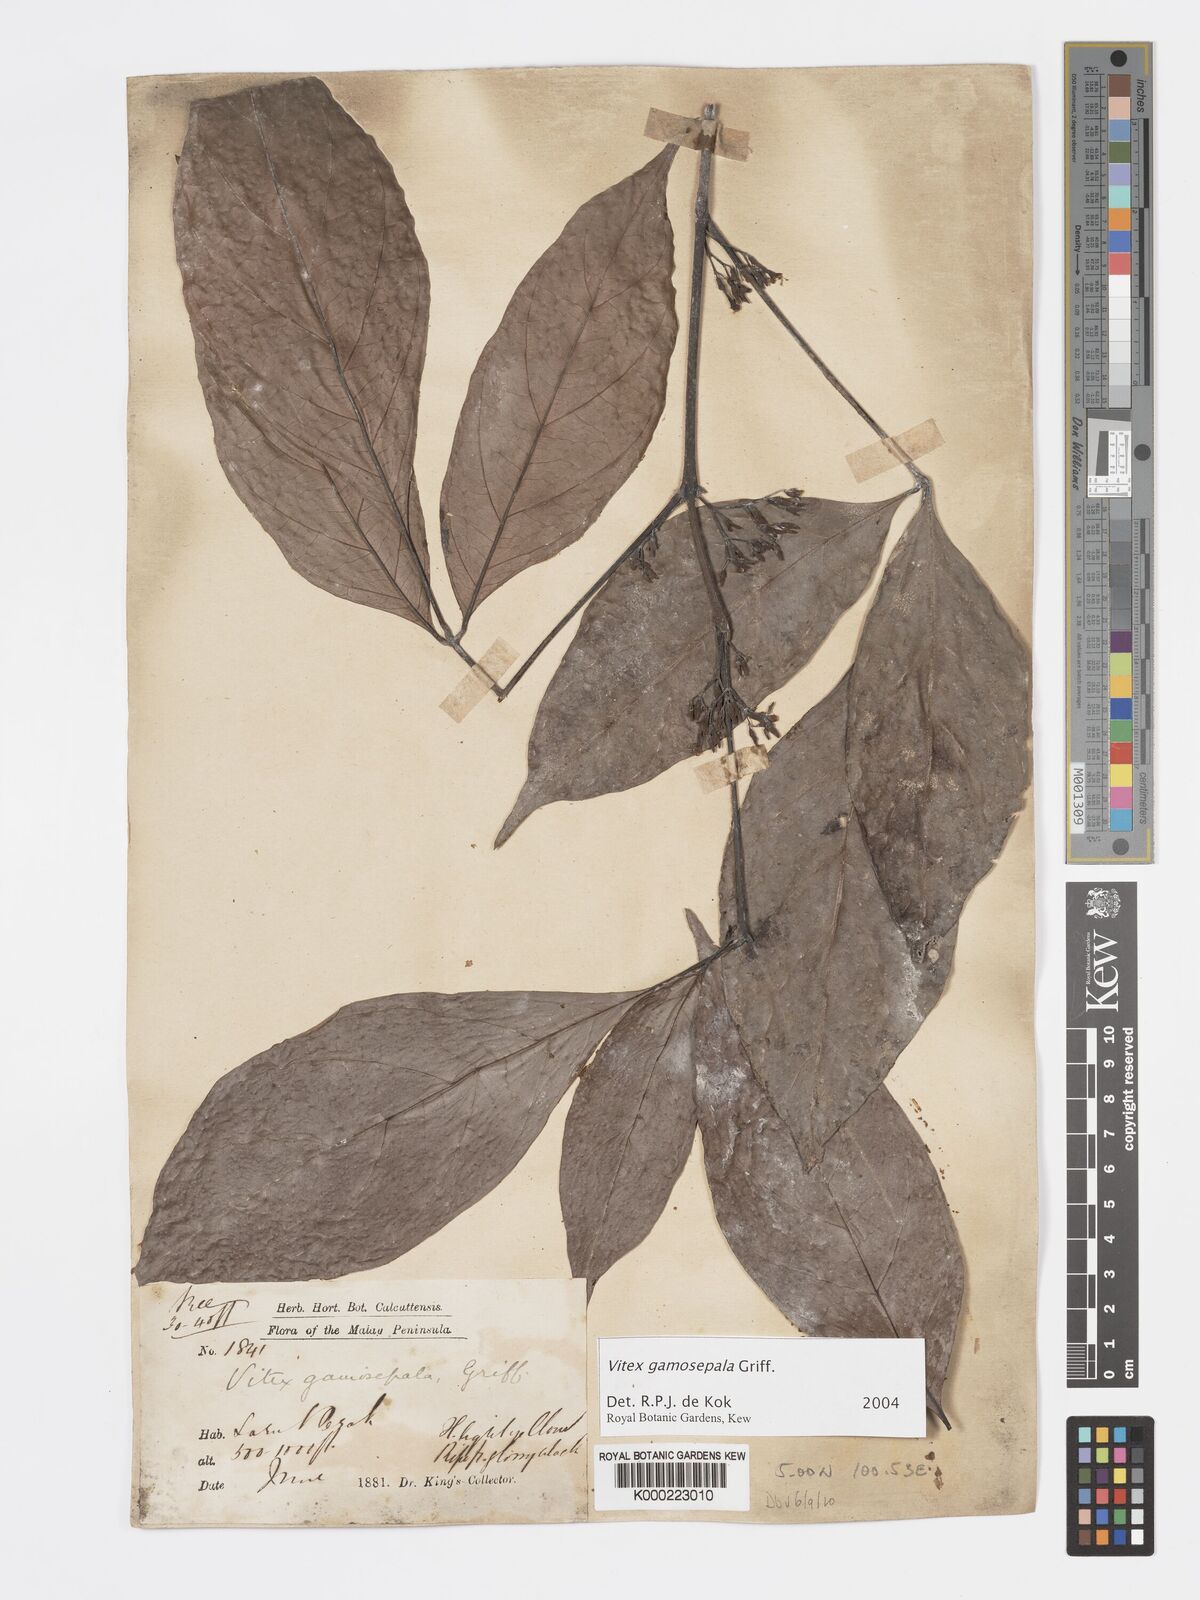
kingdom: Plantae
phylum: Tracheophyta
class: Magnoliopsida
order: Lamiales
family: Lamiaceae
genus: Vitex
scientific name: Vitex gamosepala
